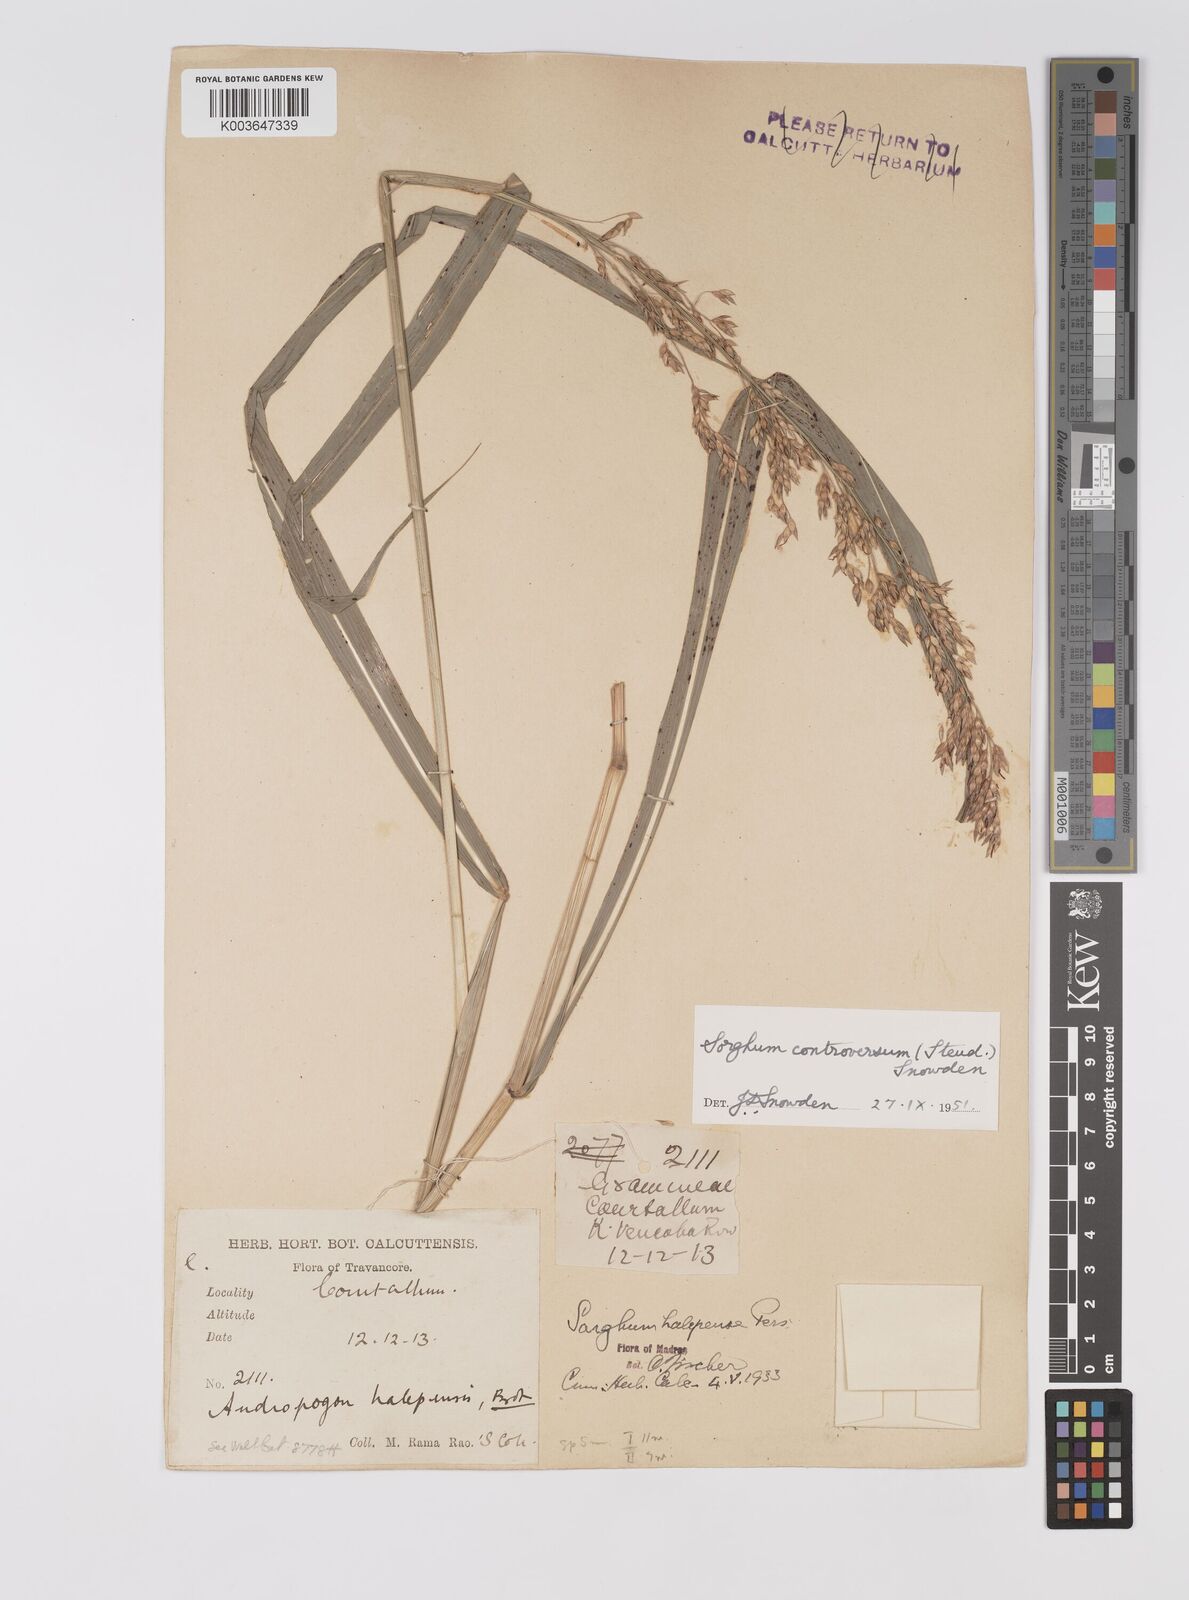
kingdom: Plantae
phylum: Tracheophyta
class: Liliopsida
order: Poales
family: Poaceae
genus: Sorghum
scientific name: Sorghum controversum
